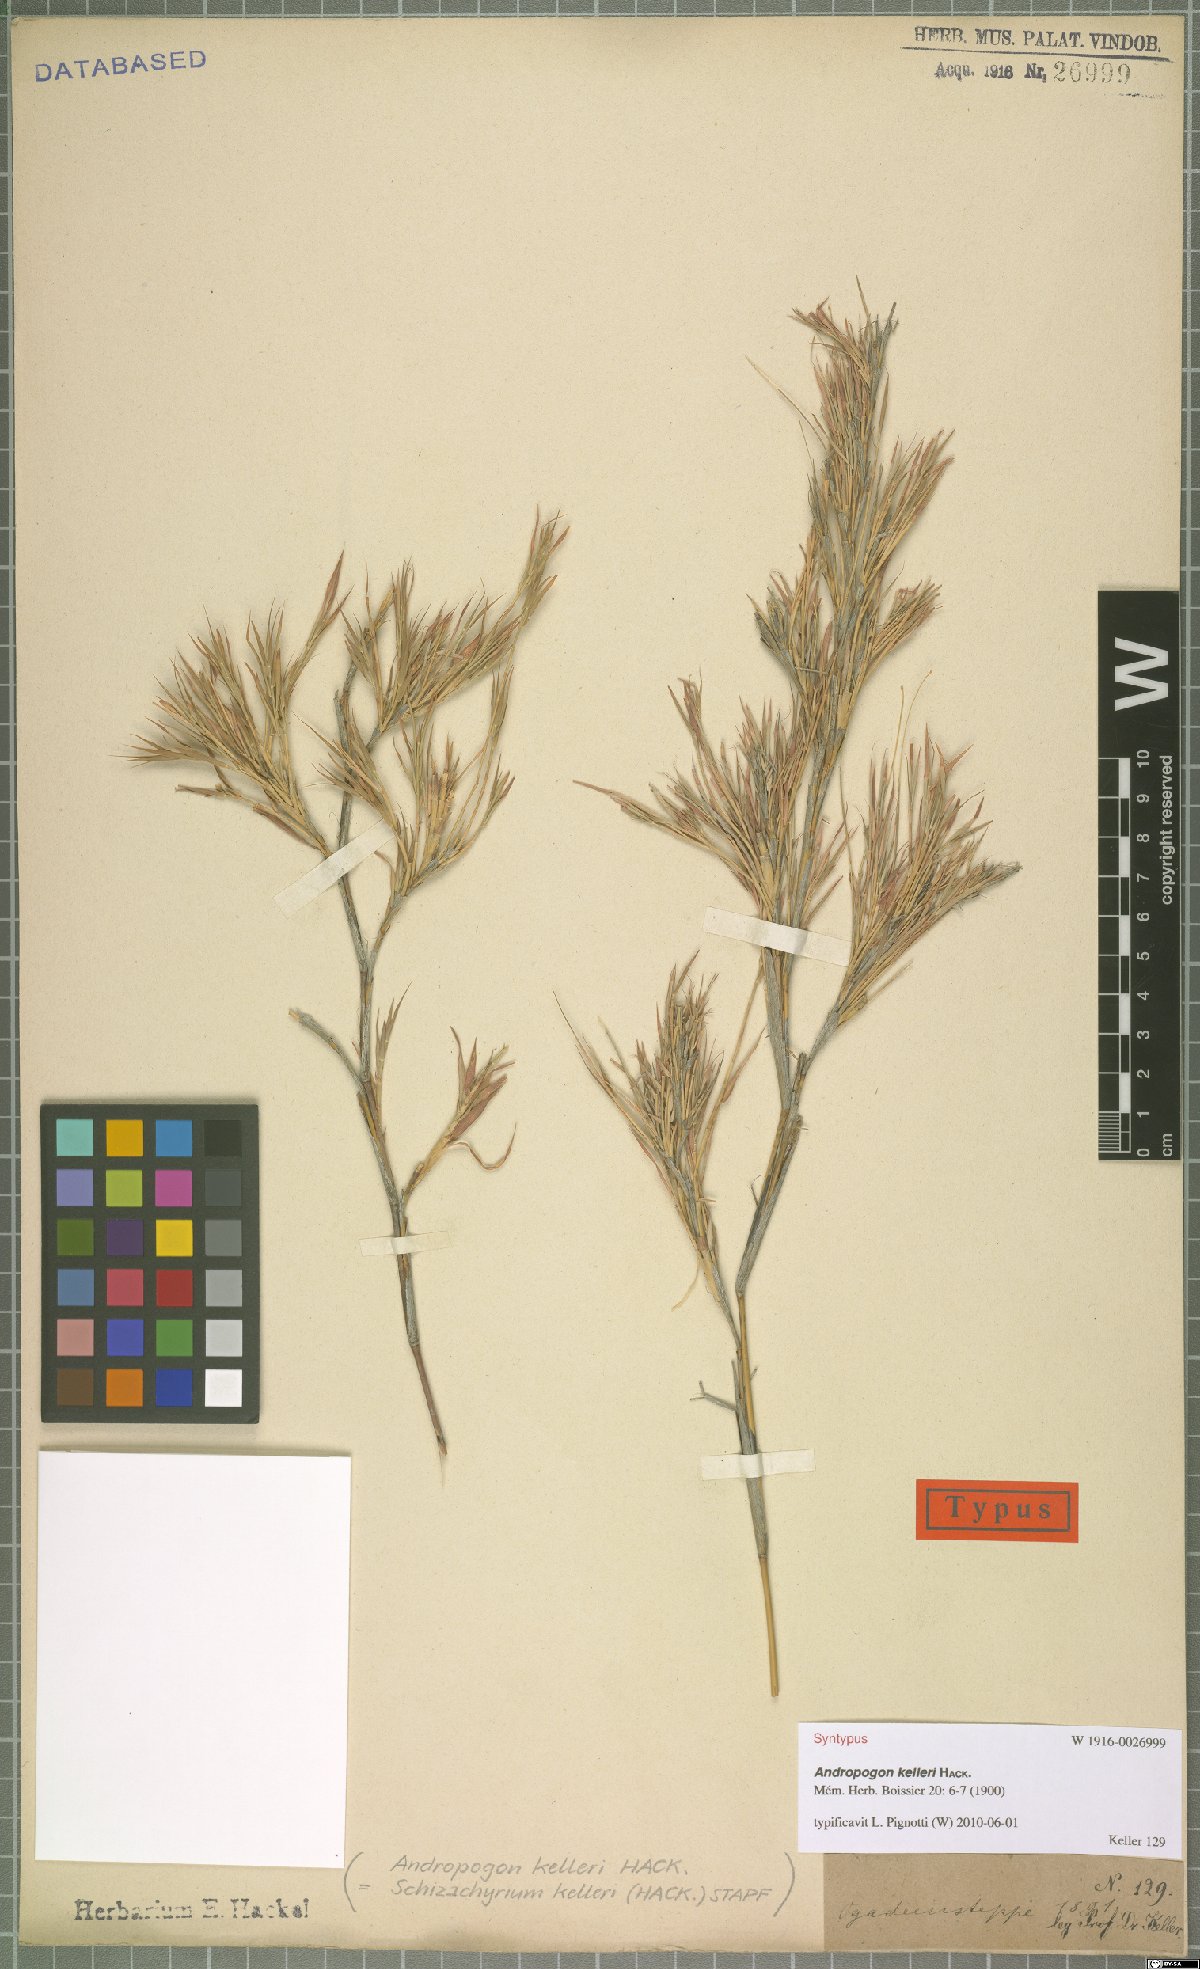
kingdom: Plantae
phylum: Tracheophyta
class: Liliopsida
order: Poales
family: Poaceae
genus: Andropogon
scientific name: Andropogon kelleri
